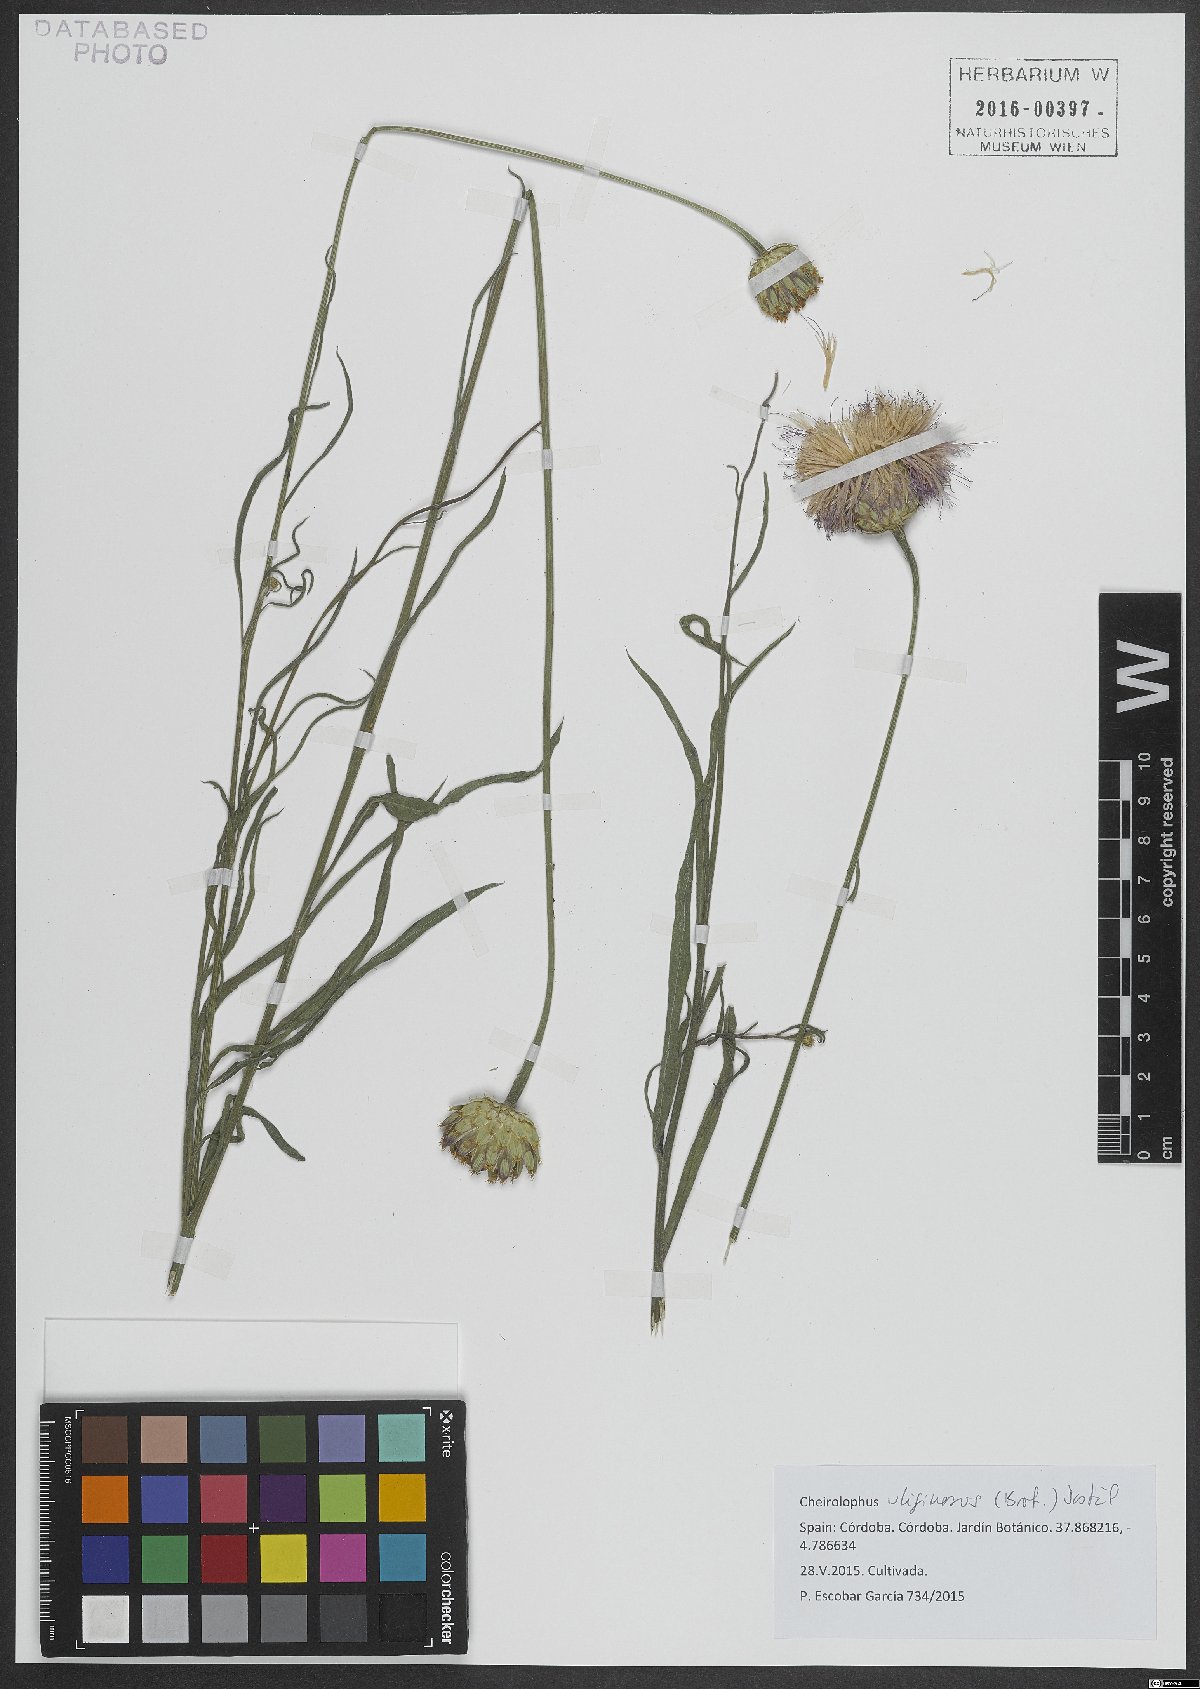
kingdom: Plantae
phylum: Tracheophyta
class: Magnoliopsida
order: Asterales
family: Asteraceae
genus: Cheirolophus
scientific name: Cheirolophus uliginosus
